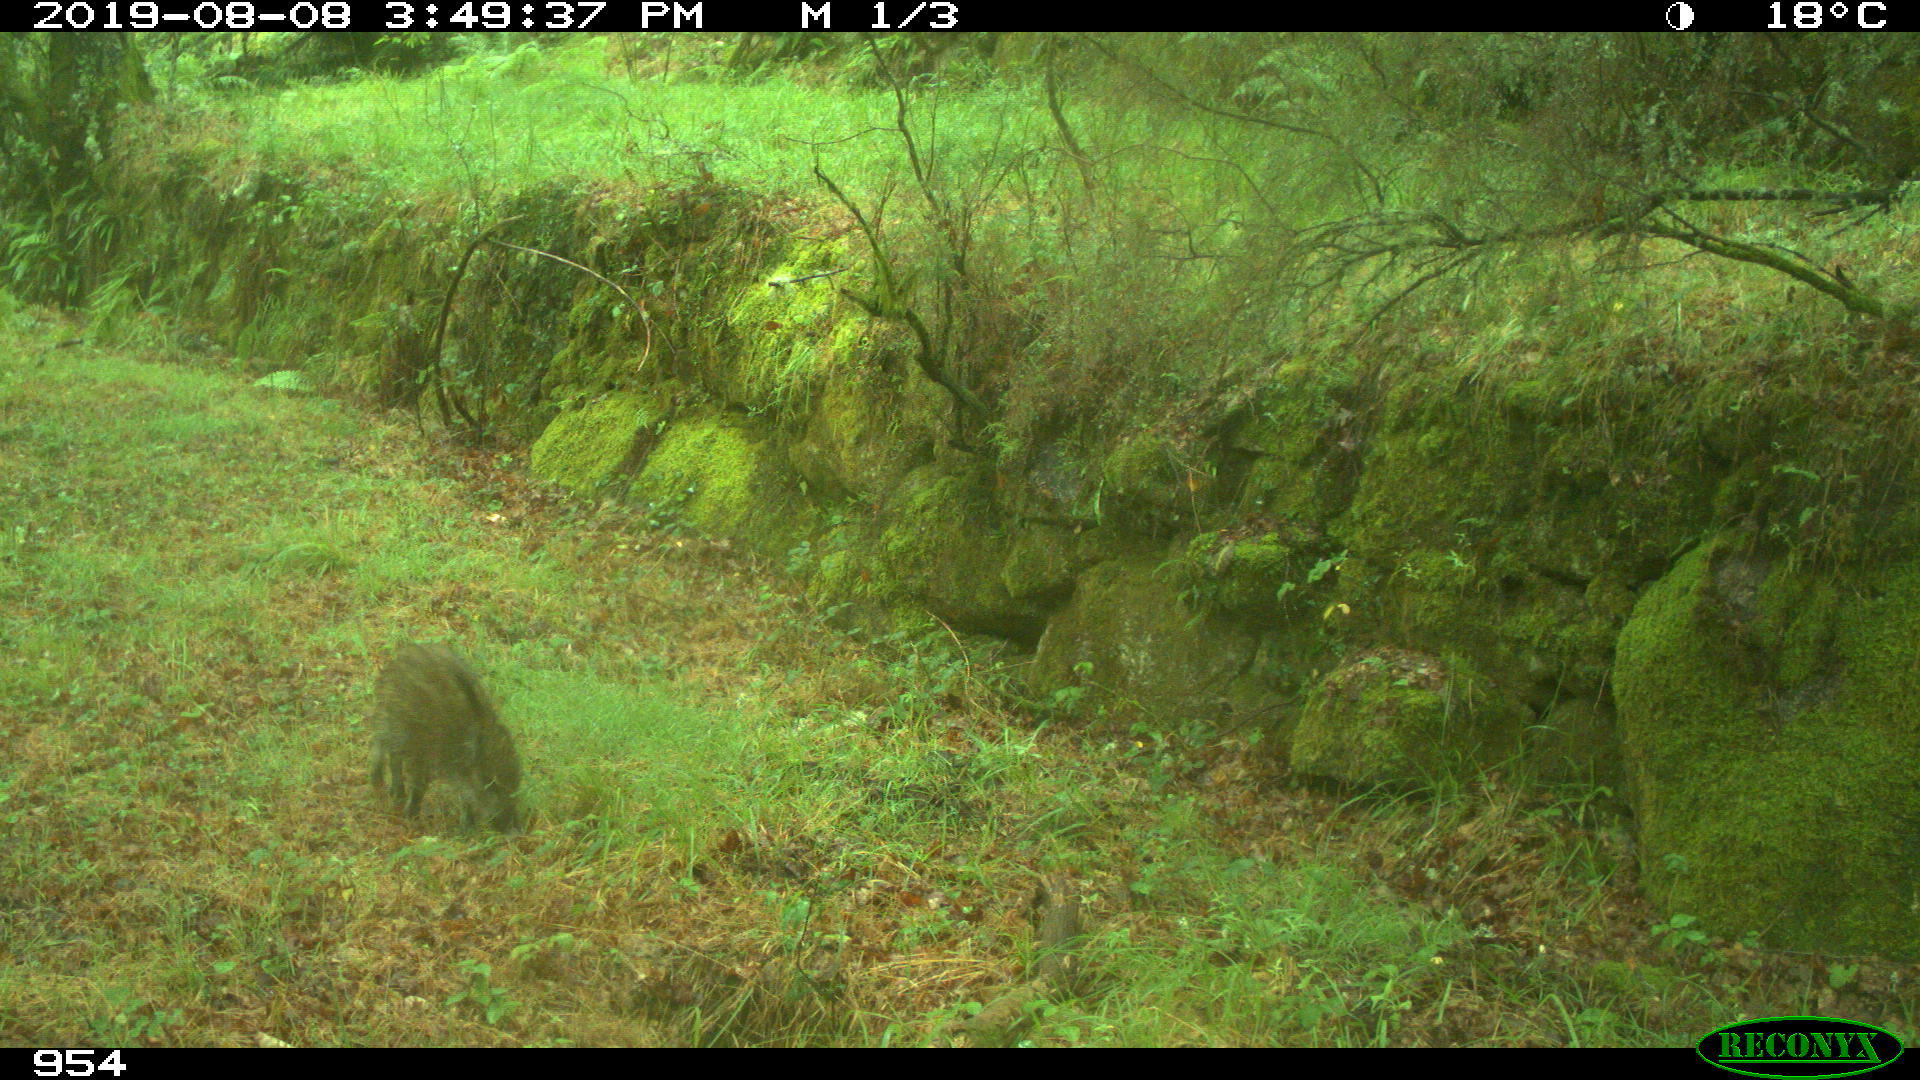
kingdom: Animalia
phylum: Chordata
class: Mammalia
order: Artiodactyla
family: Suidae
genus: Sus
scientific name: Sus scrofa
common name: Wild boar
